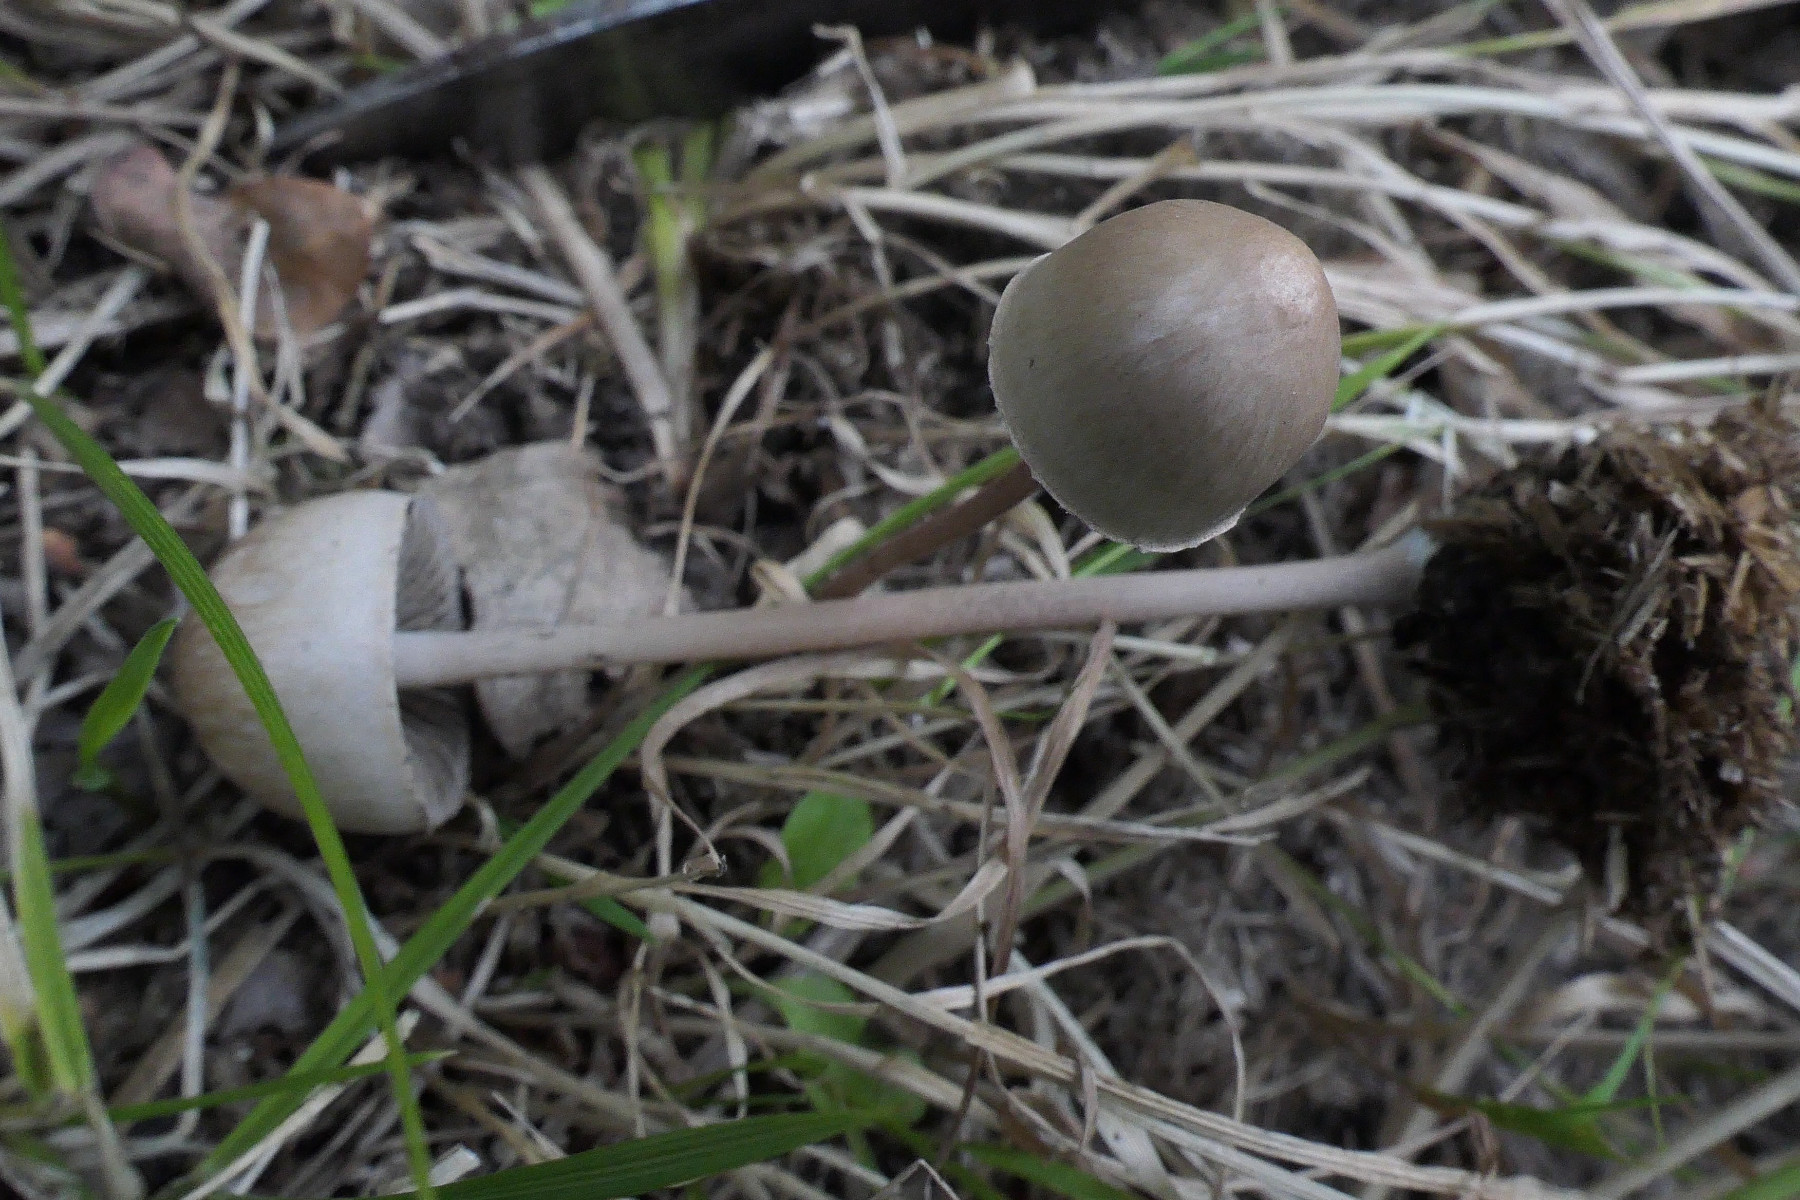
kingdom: Fungi
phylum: Basidiomycota
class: Agaricomycetes
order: Agaricales
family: Bolbitiaceae
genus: Panaeolus
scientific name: Panaeolus papilionaceus
